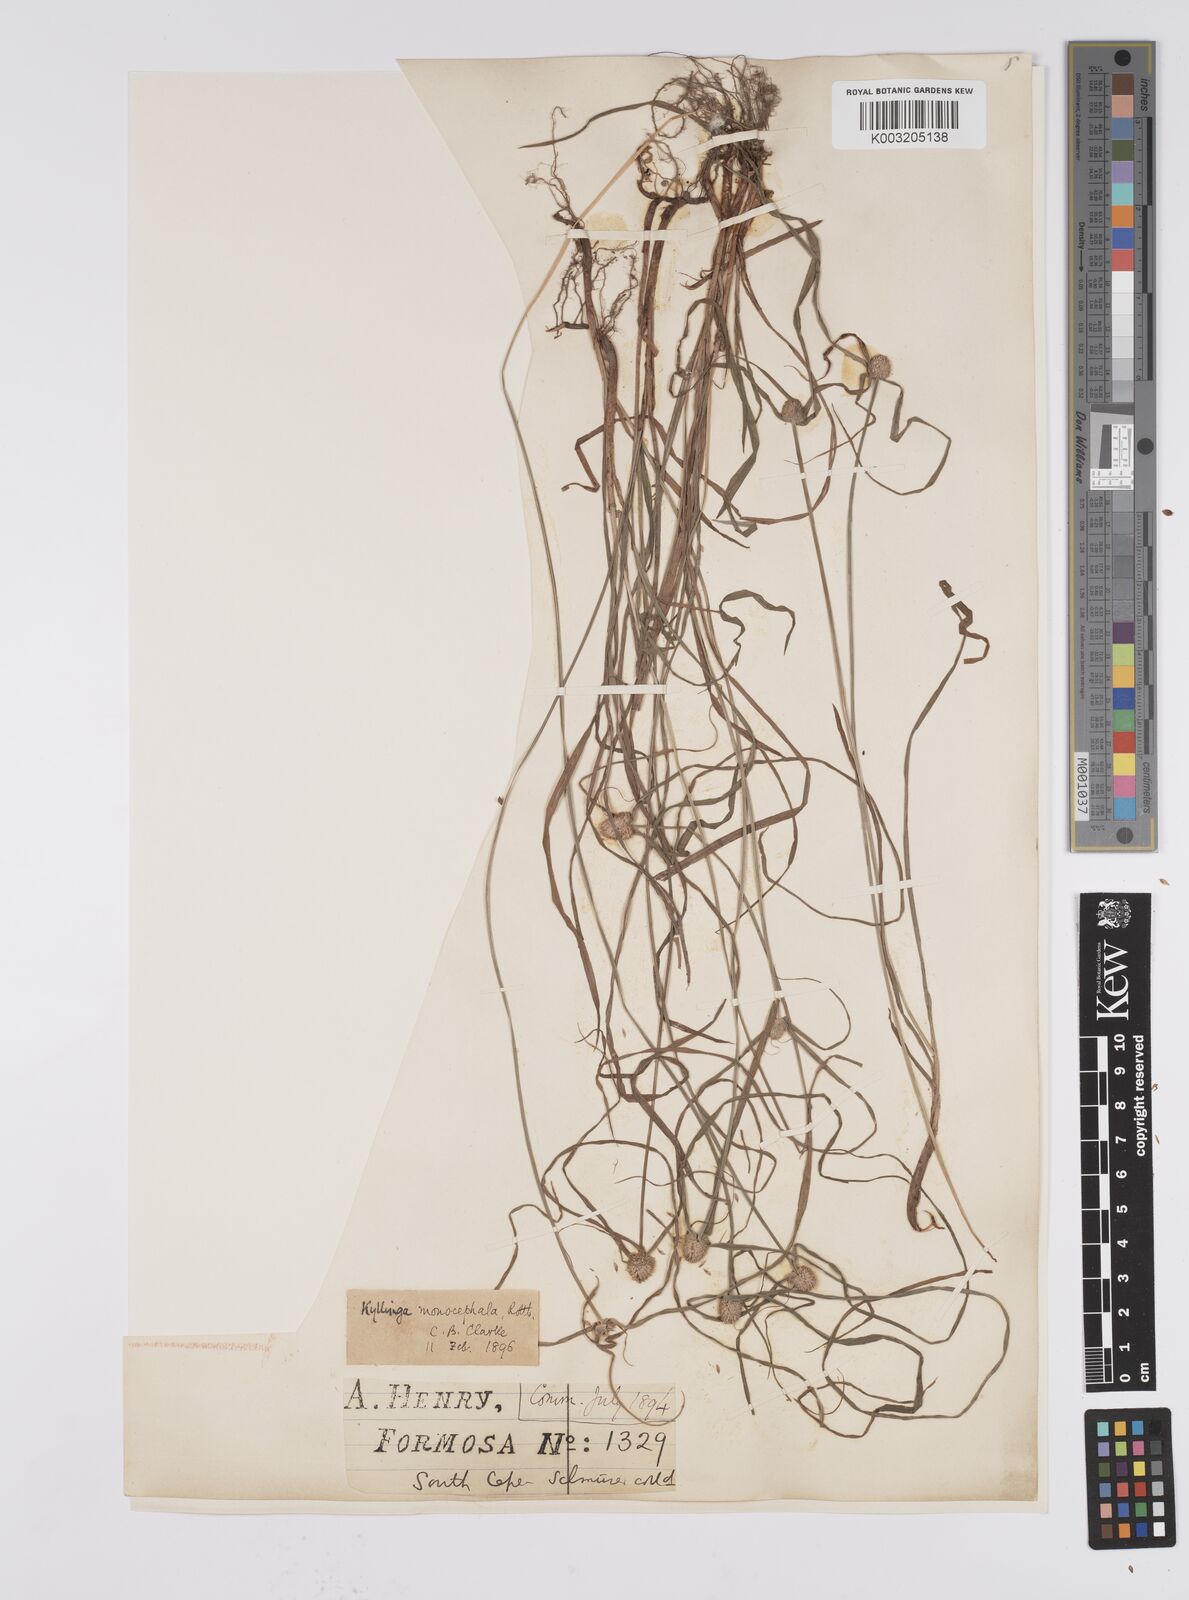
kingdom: Plantae
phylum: Tracheophyta
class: Liliopsida
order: Poales
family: Cyperaceae
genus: Cyperus
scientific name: Cyperus nemoralis
